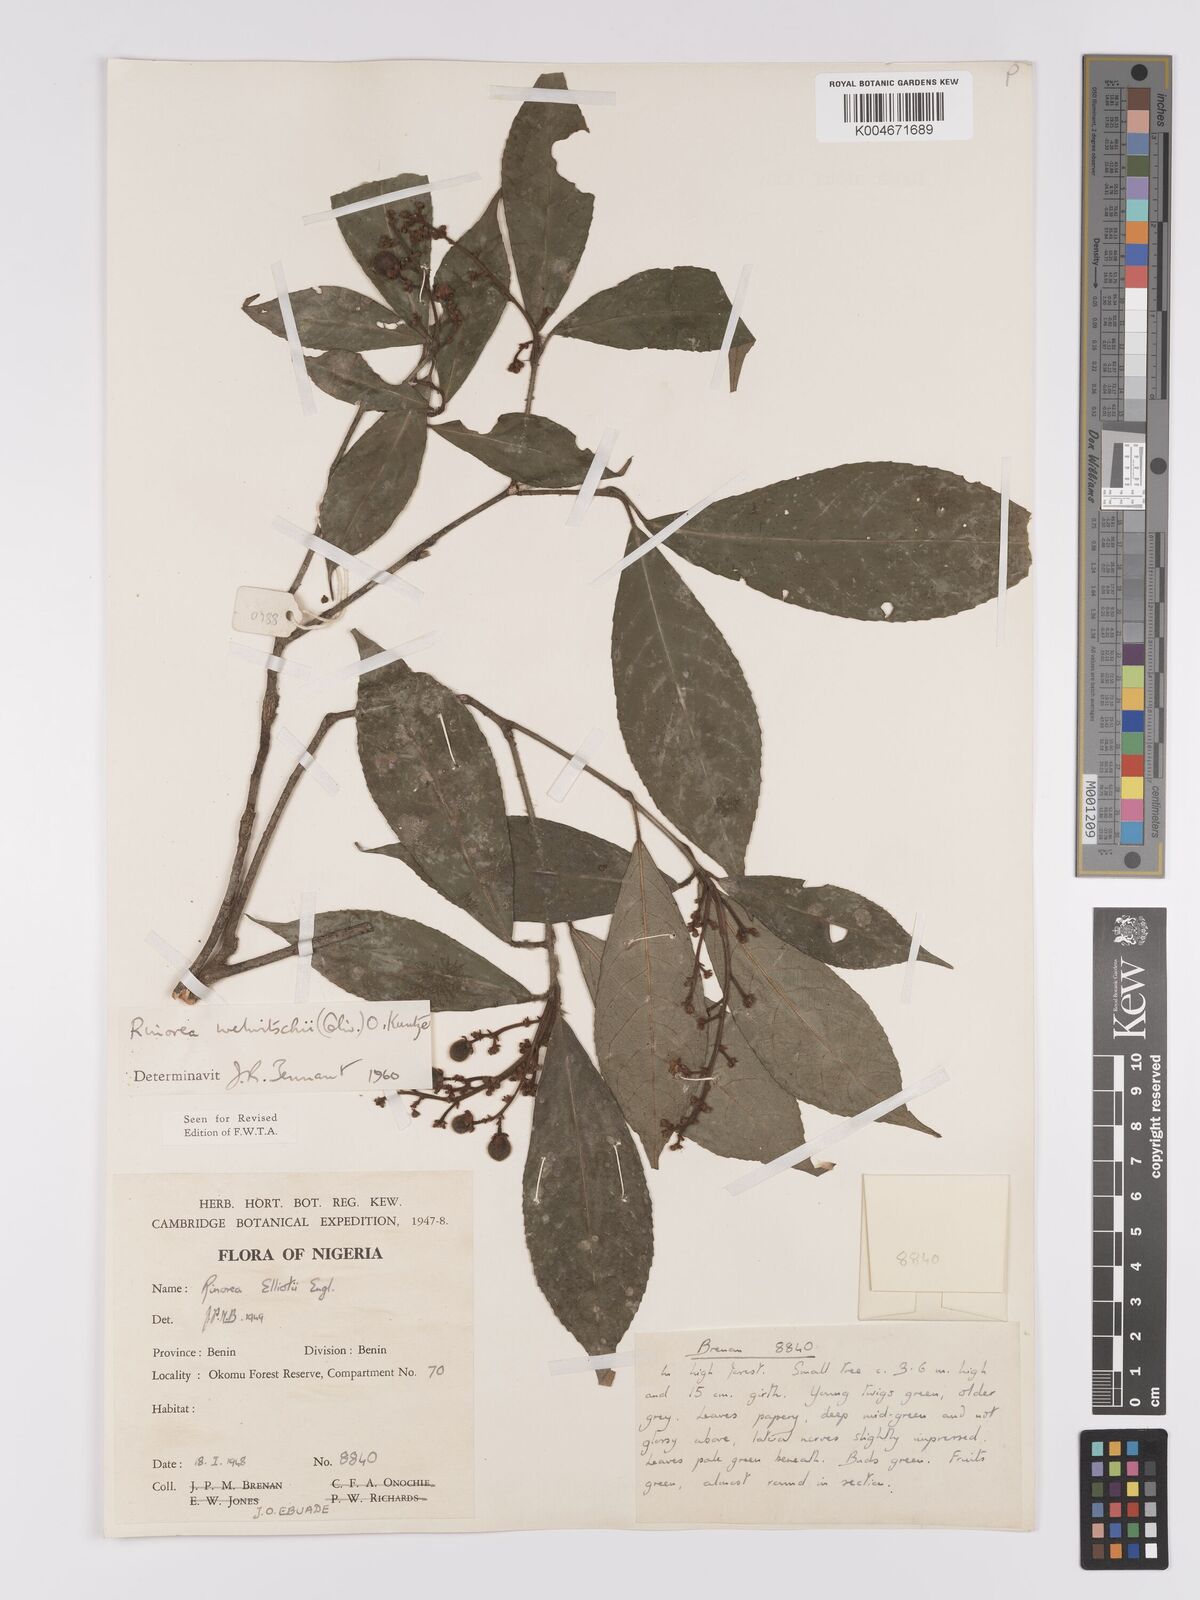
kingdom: Plantae
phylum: Tracheophyta
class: Magnoliopsida
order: Malpighiales
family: Violaceae
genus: Rinorea
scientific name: Rinorea welwitschii
